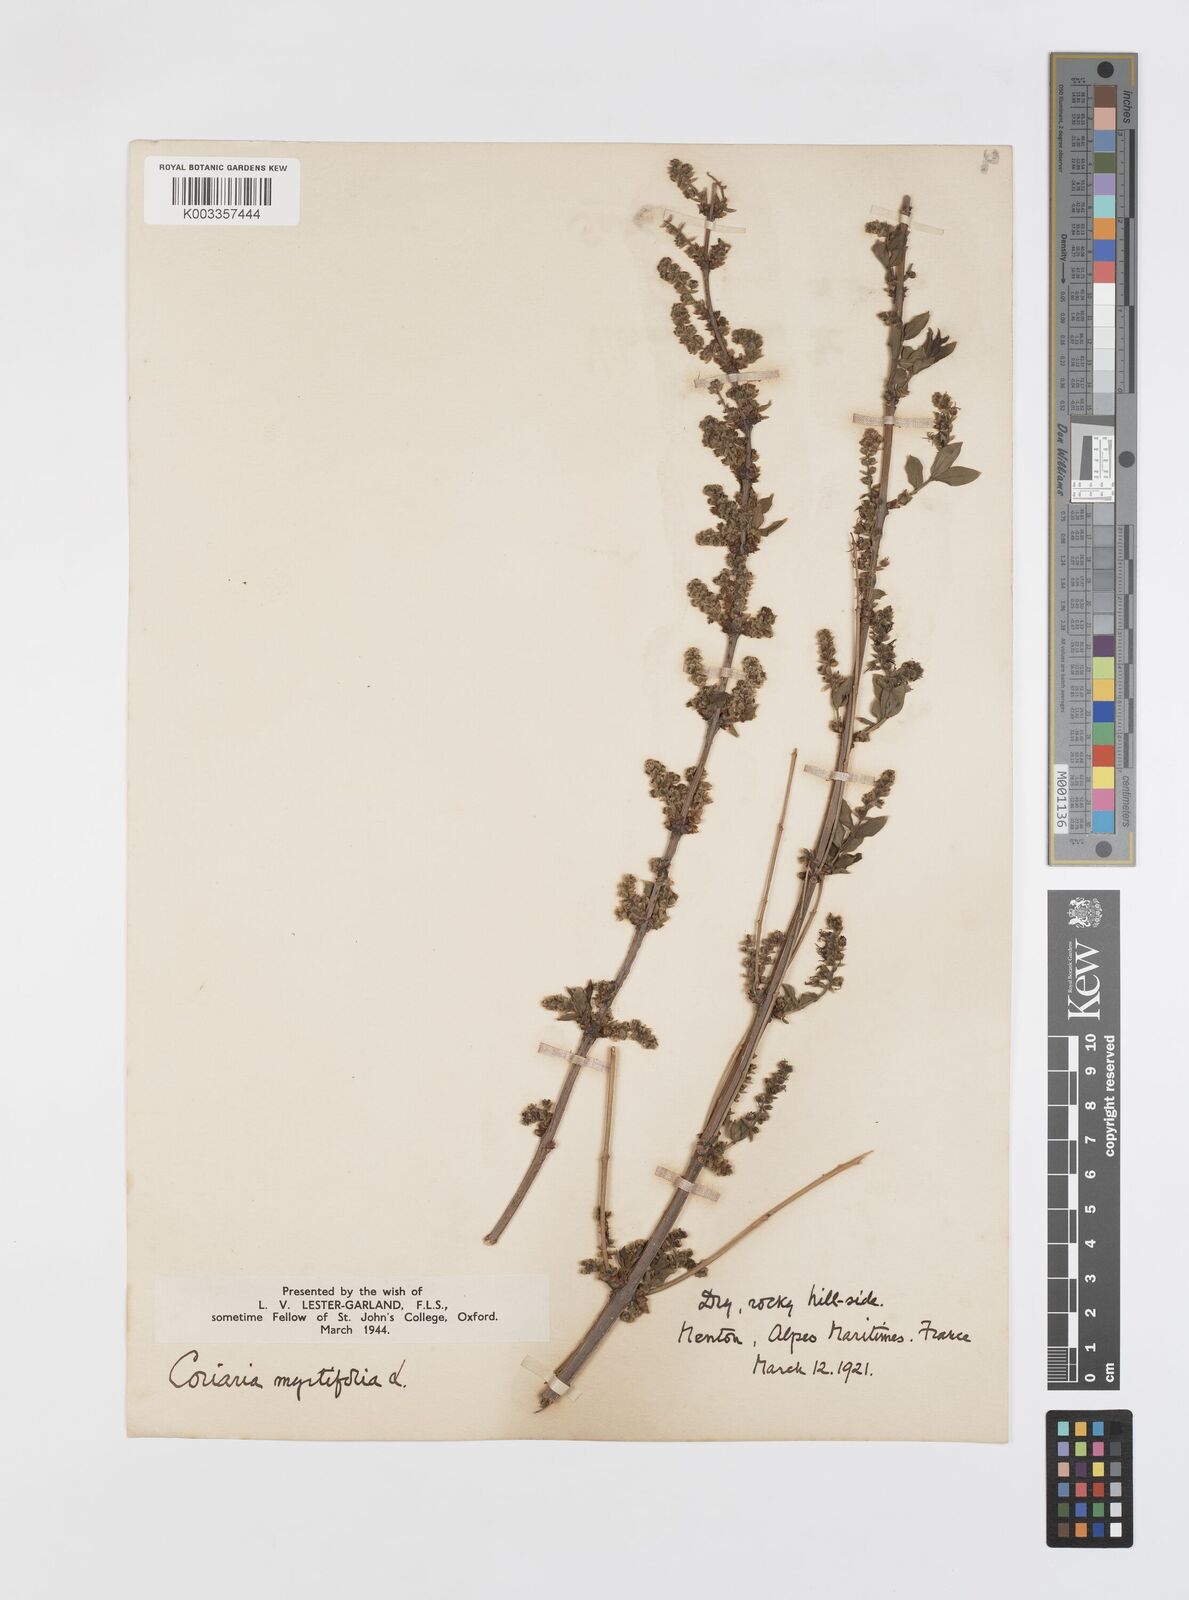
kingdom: Plantae
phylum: Tracheophyta
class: Magnoliopsida
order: Cucurbitales
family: Coriariaceae
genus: Coriaria
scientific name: Coriaria myrtifolia
